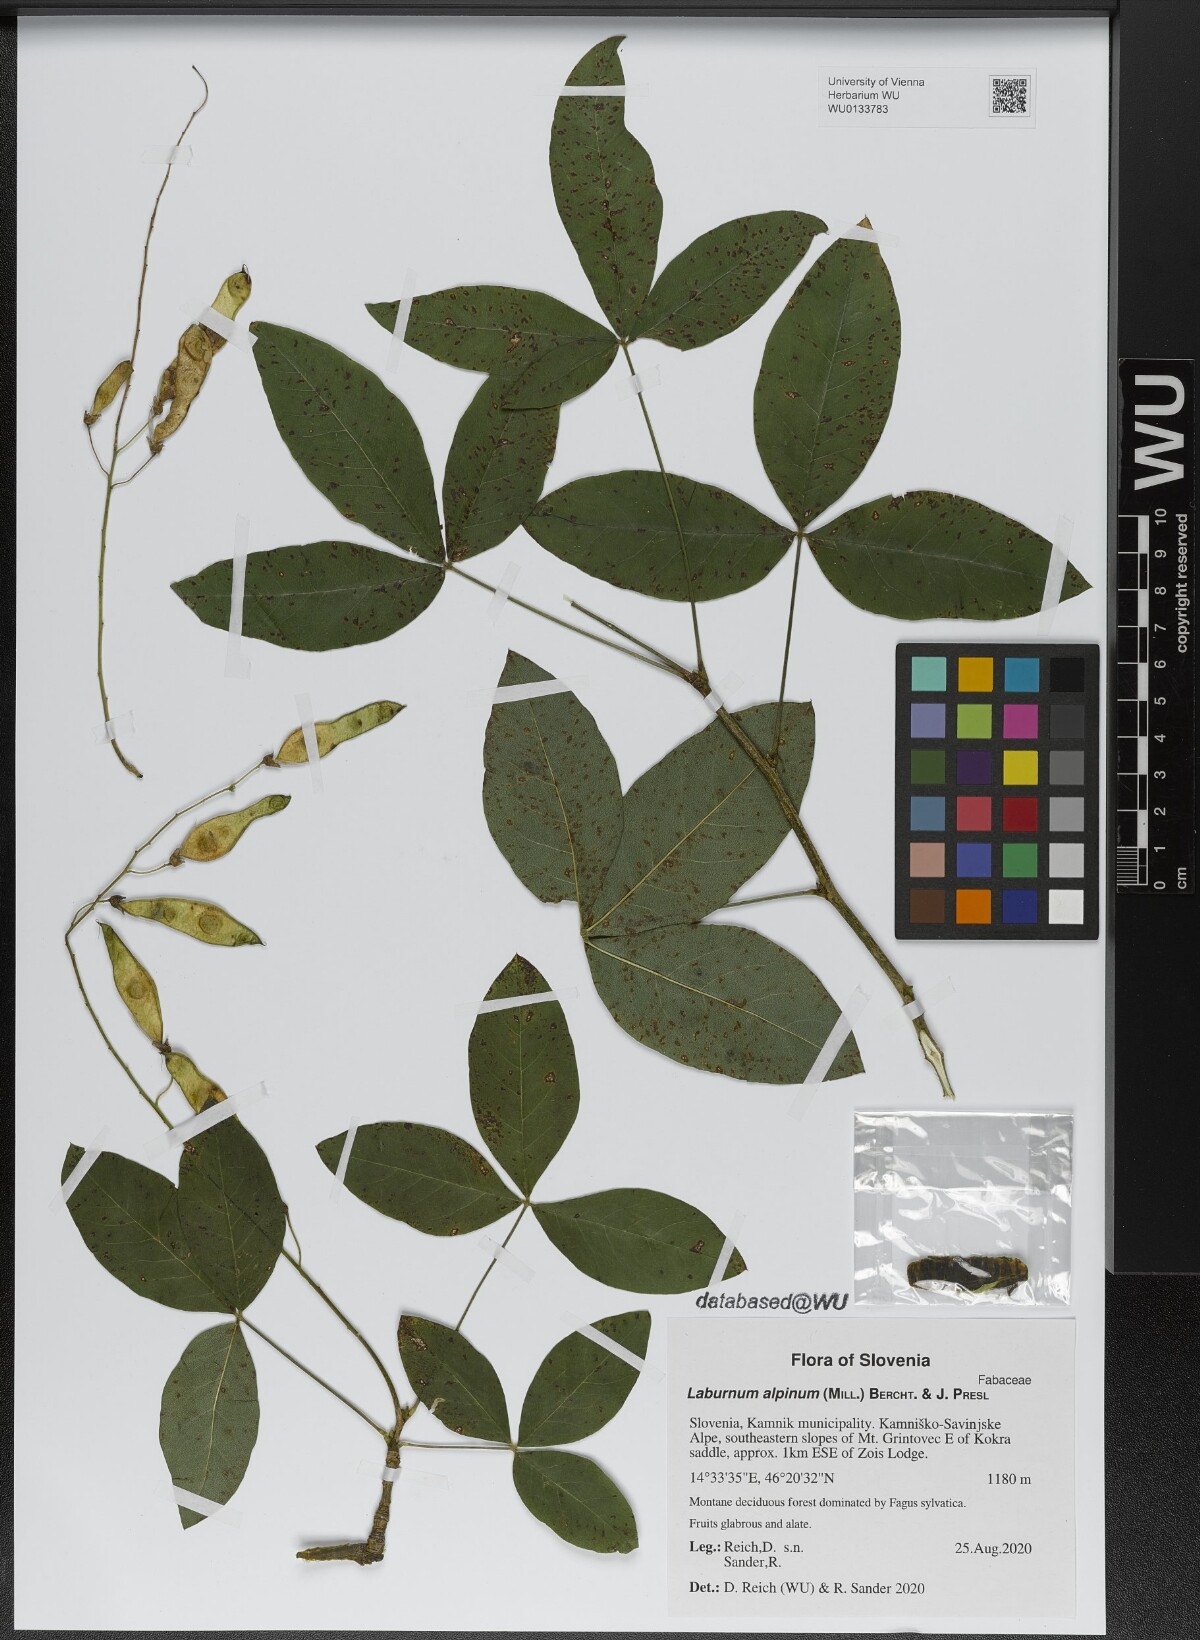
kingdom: Plantae
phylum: Tracheophyta
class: Magnoliopsida
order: Fabales
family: Fabaceae
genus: Laburnum
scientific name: Laburnum alpinum
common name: Scottish laburnum
